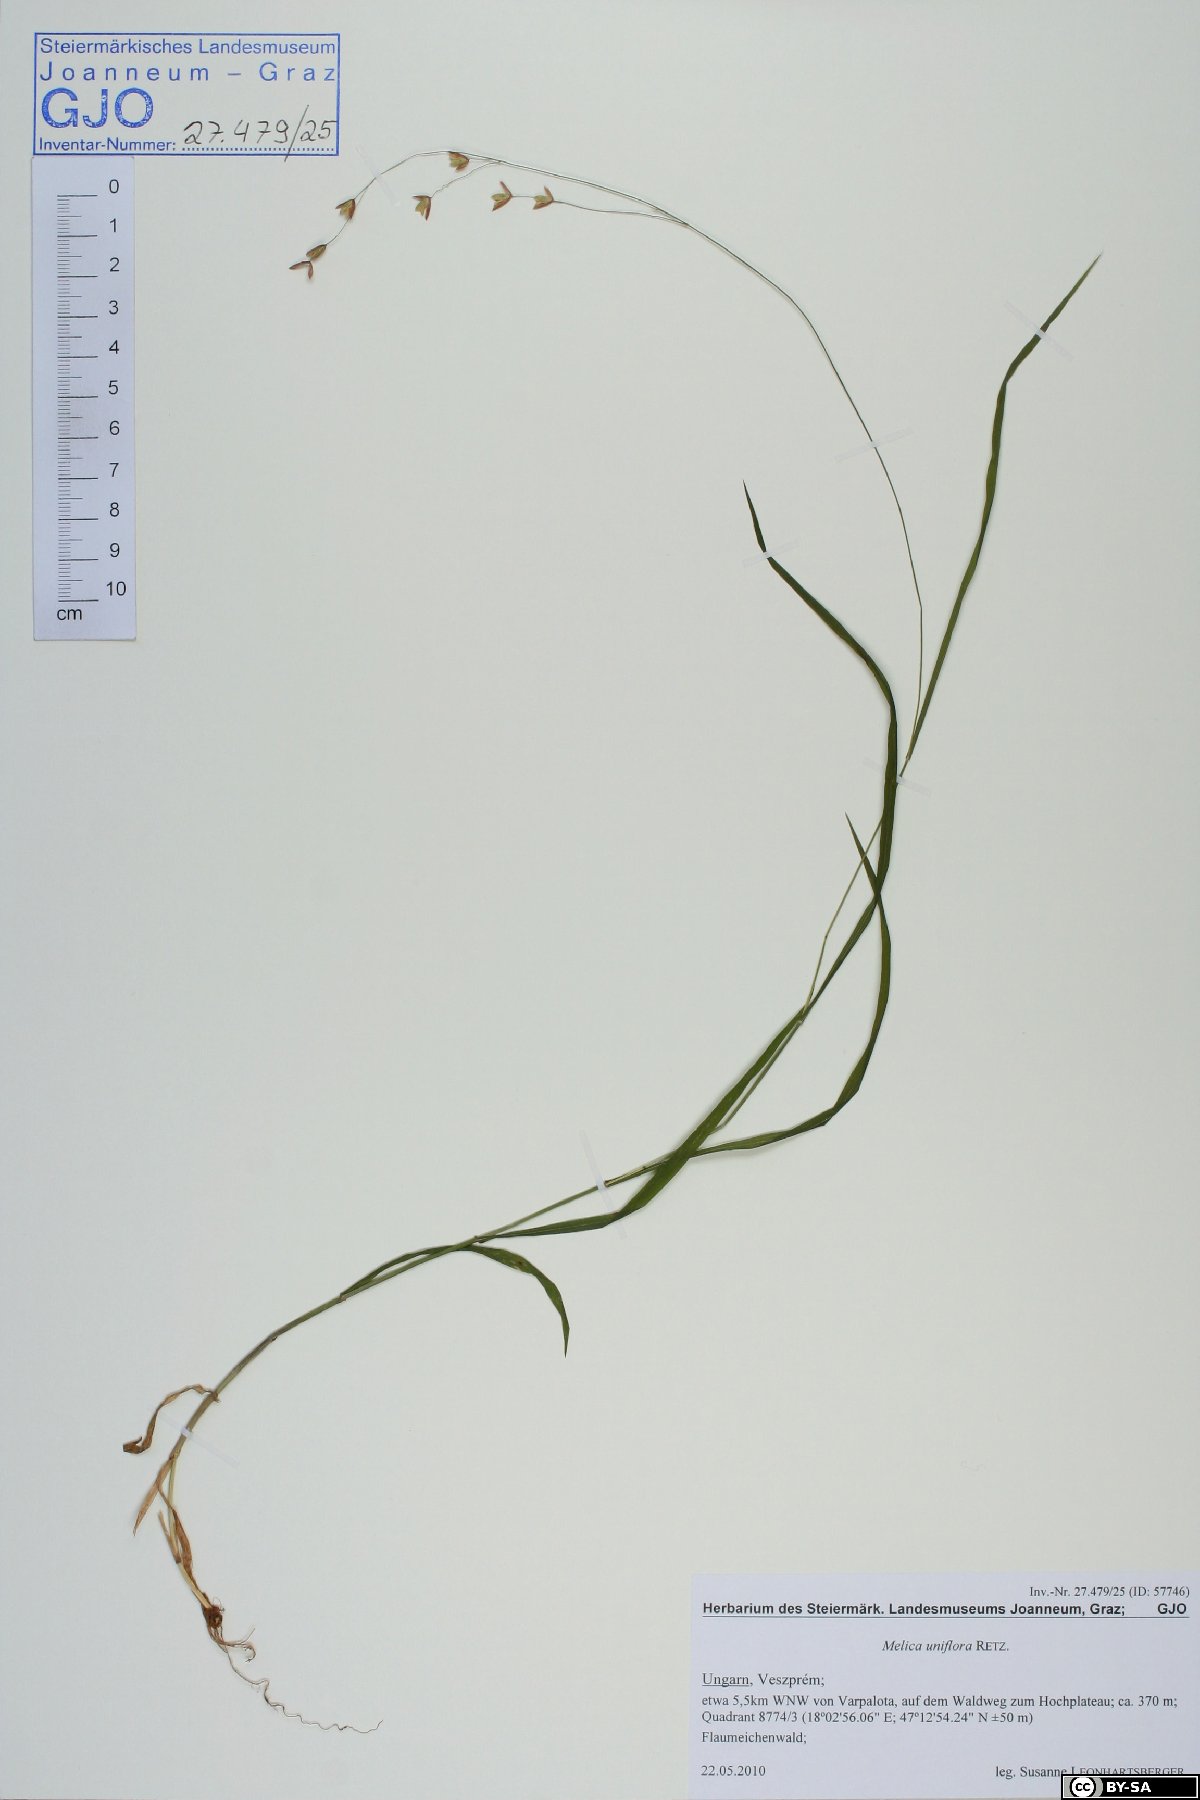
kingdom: Plantae
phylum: Tracheophyta
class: Liliopsida
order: Poales
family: Poaceae
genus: Melica
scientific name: Melica uniflora
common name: Wood melick
